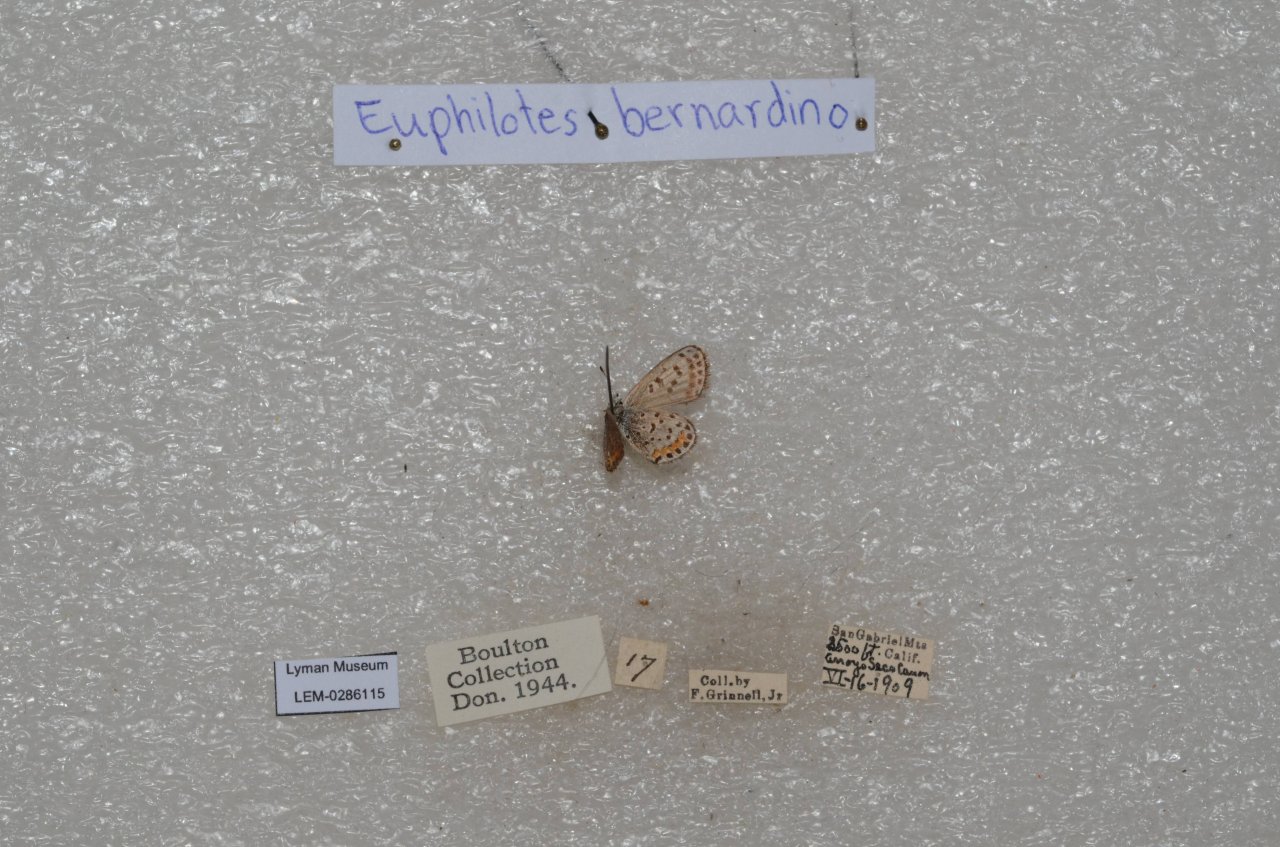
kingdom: Animalia
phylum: Arthropoda
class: Insecta
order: Lepidoptera
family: Lycaenidae
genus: Euphilotes
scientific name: Euphilotes battoides
